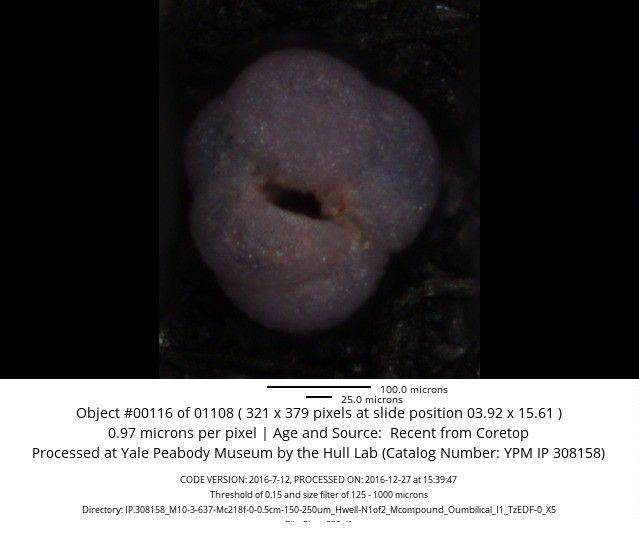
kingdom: Chromista
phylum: Foraminifera
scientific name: Foraminifera
